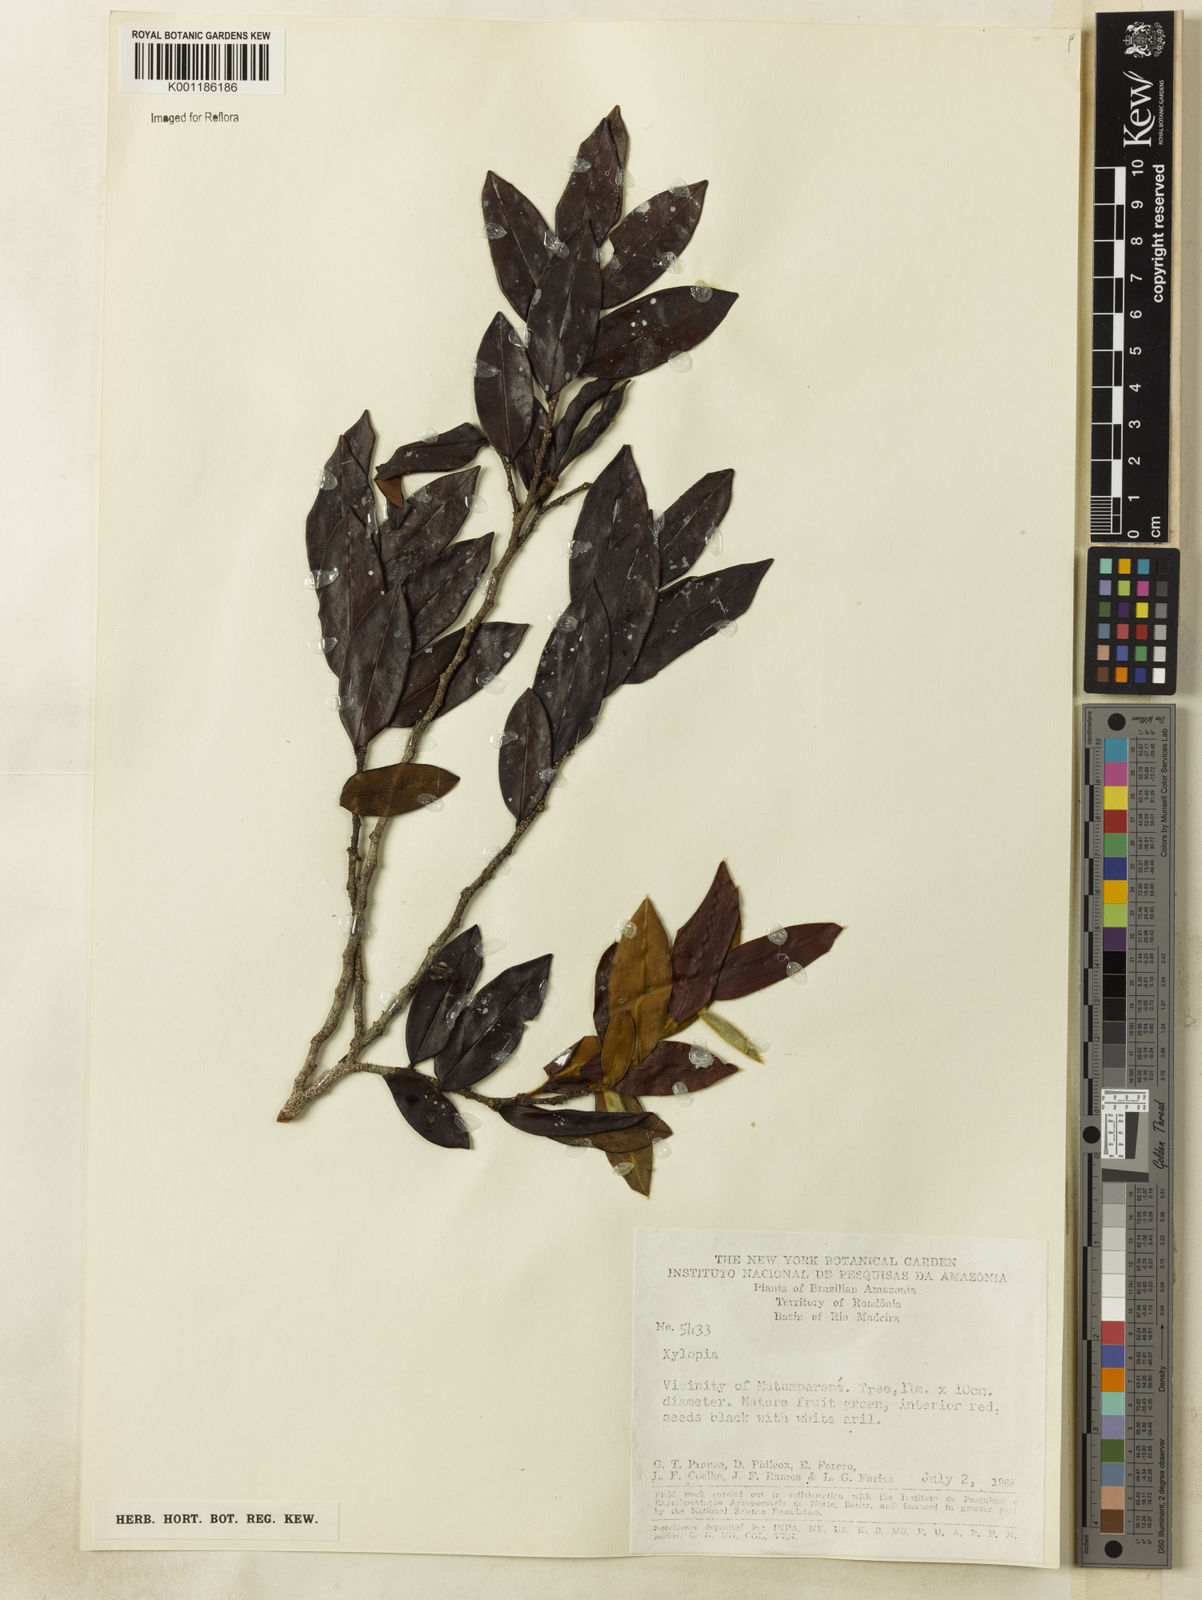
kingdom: Plantae
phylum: Tracheophyta
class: Magnoliopsida
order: Magnoliales
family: Annonaceae
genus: Xylopia
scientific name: Xylopia
